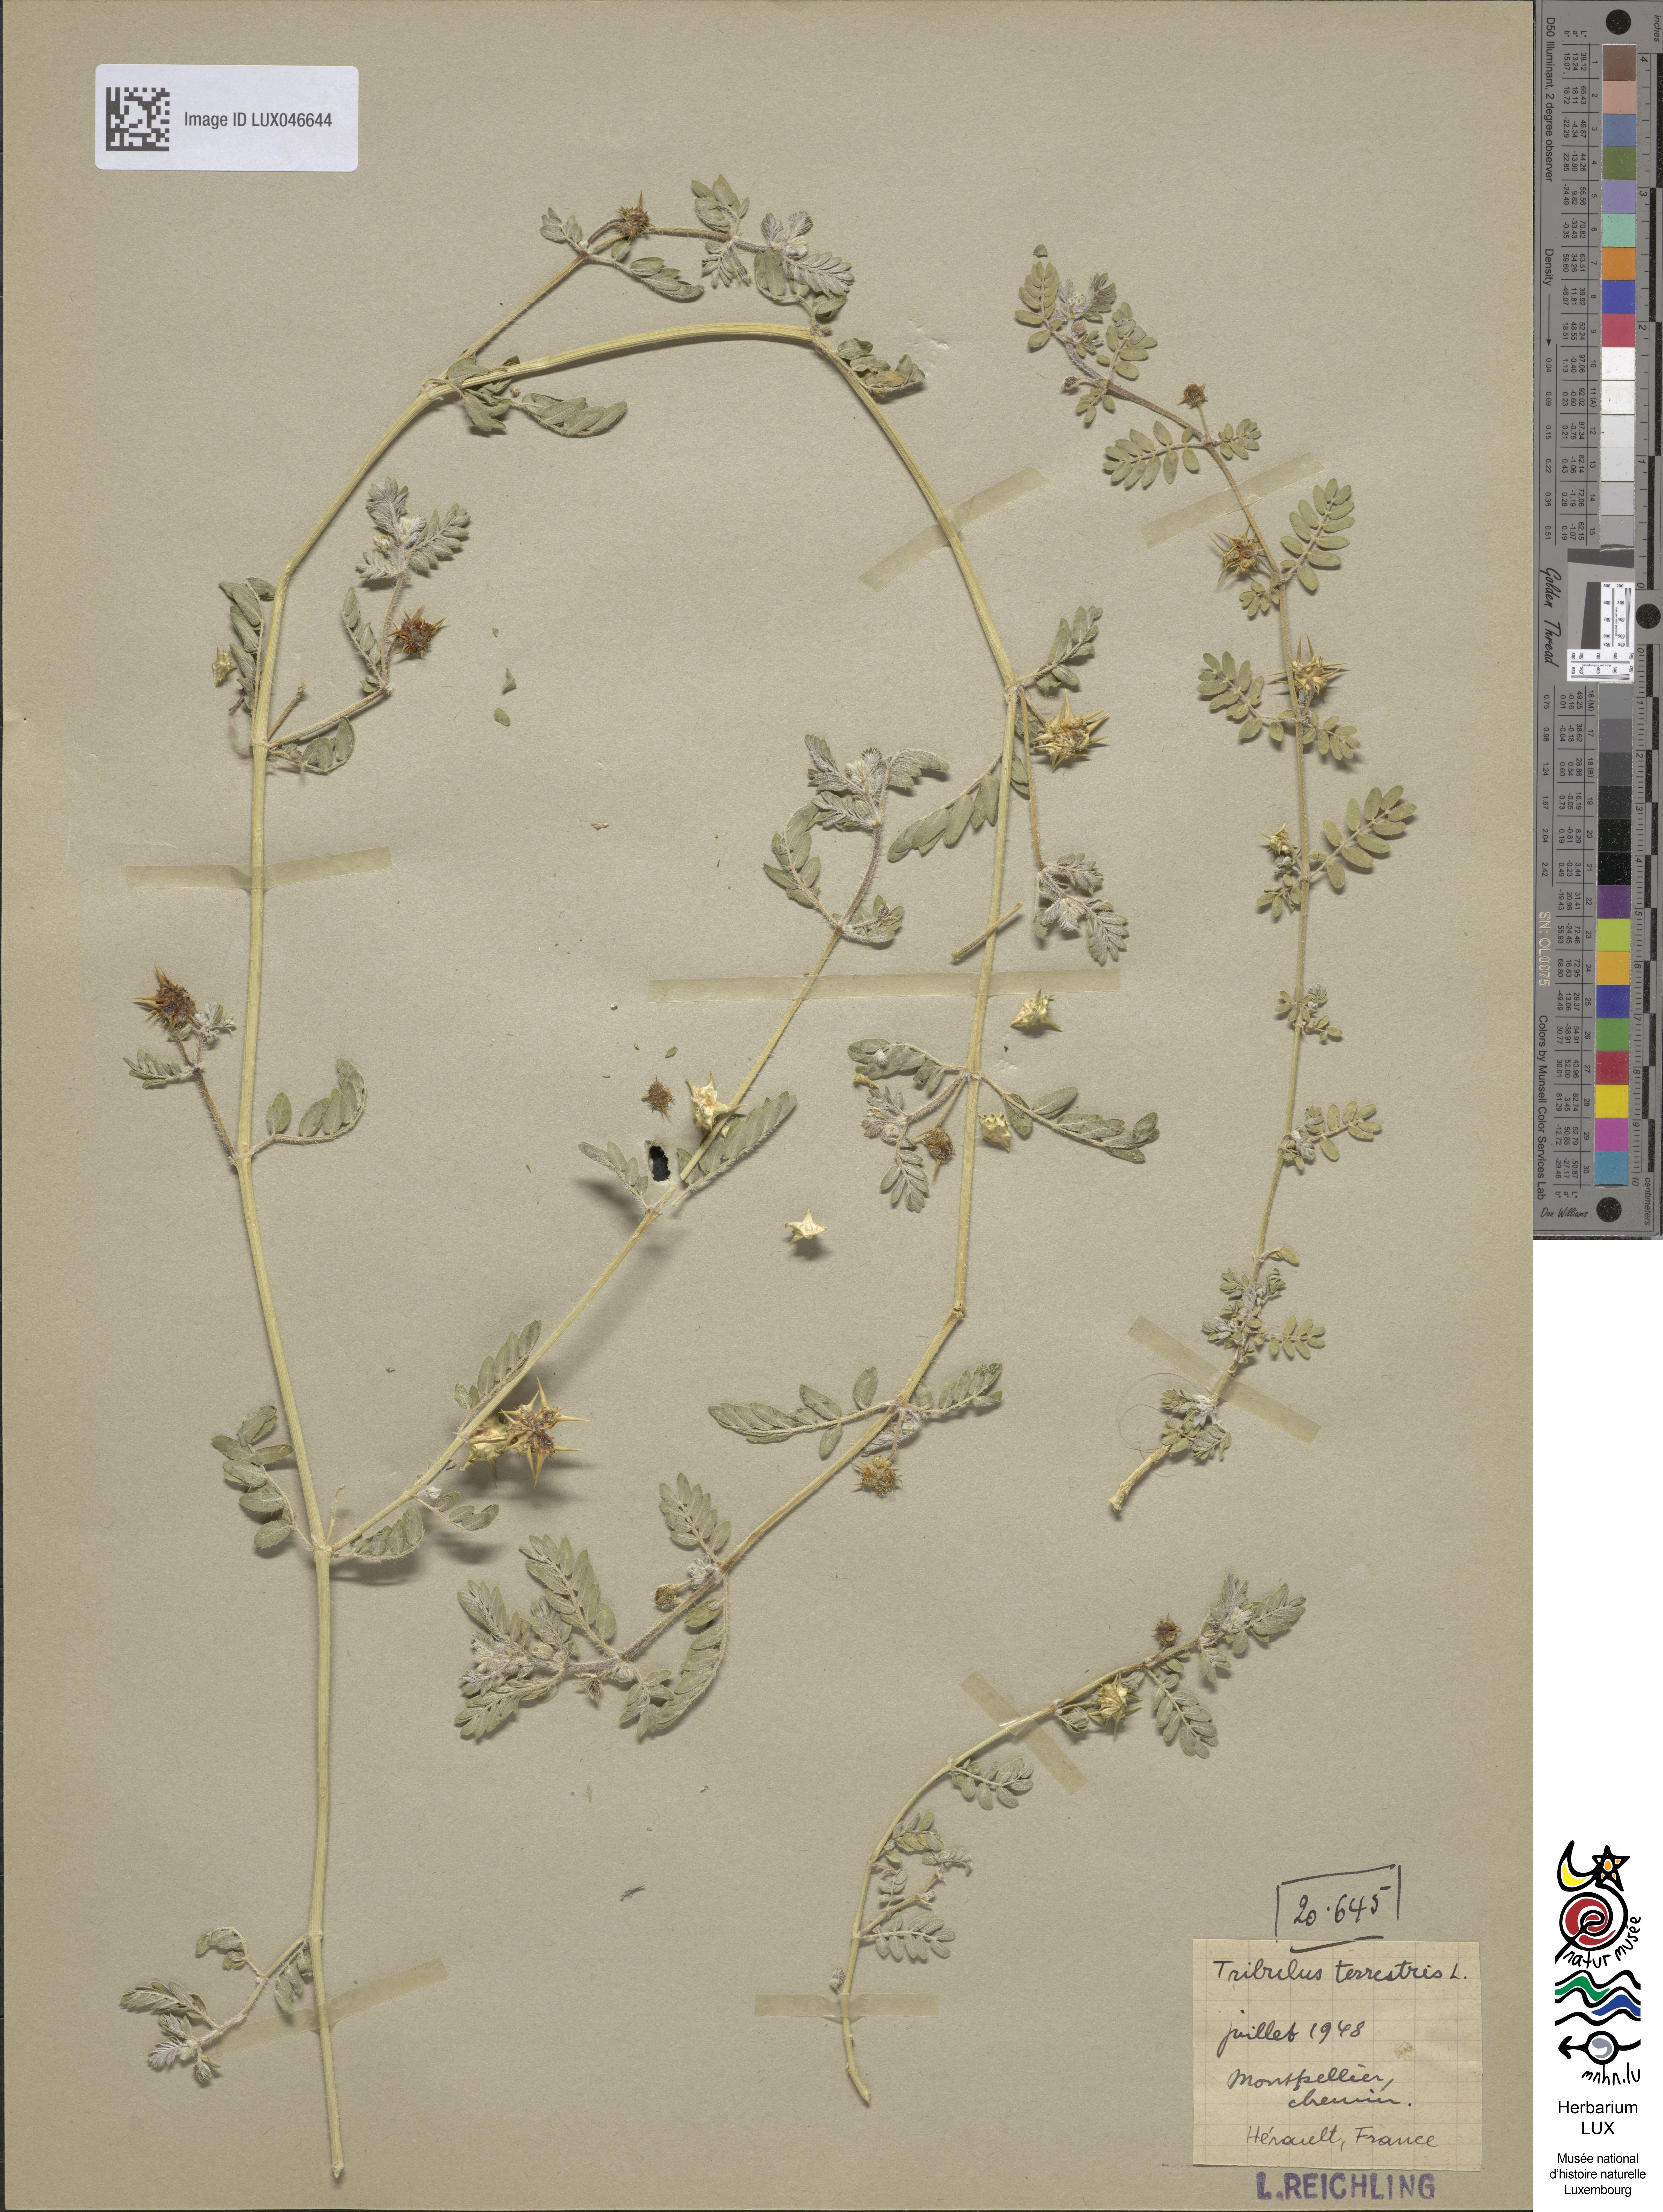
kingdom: Plantae
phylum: Tracheophyta
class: Magnoliopsida
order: Zygophyllales
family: Zygophyllaceae
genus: Tribulus
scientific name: Tribulus terrestris
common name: Puncturevine
